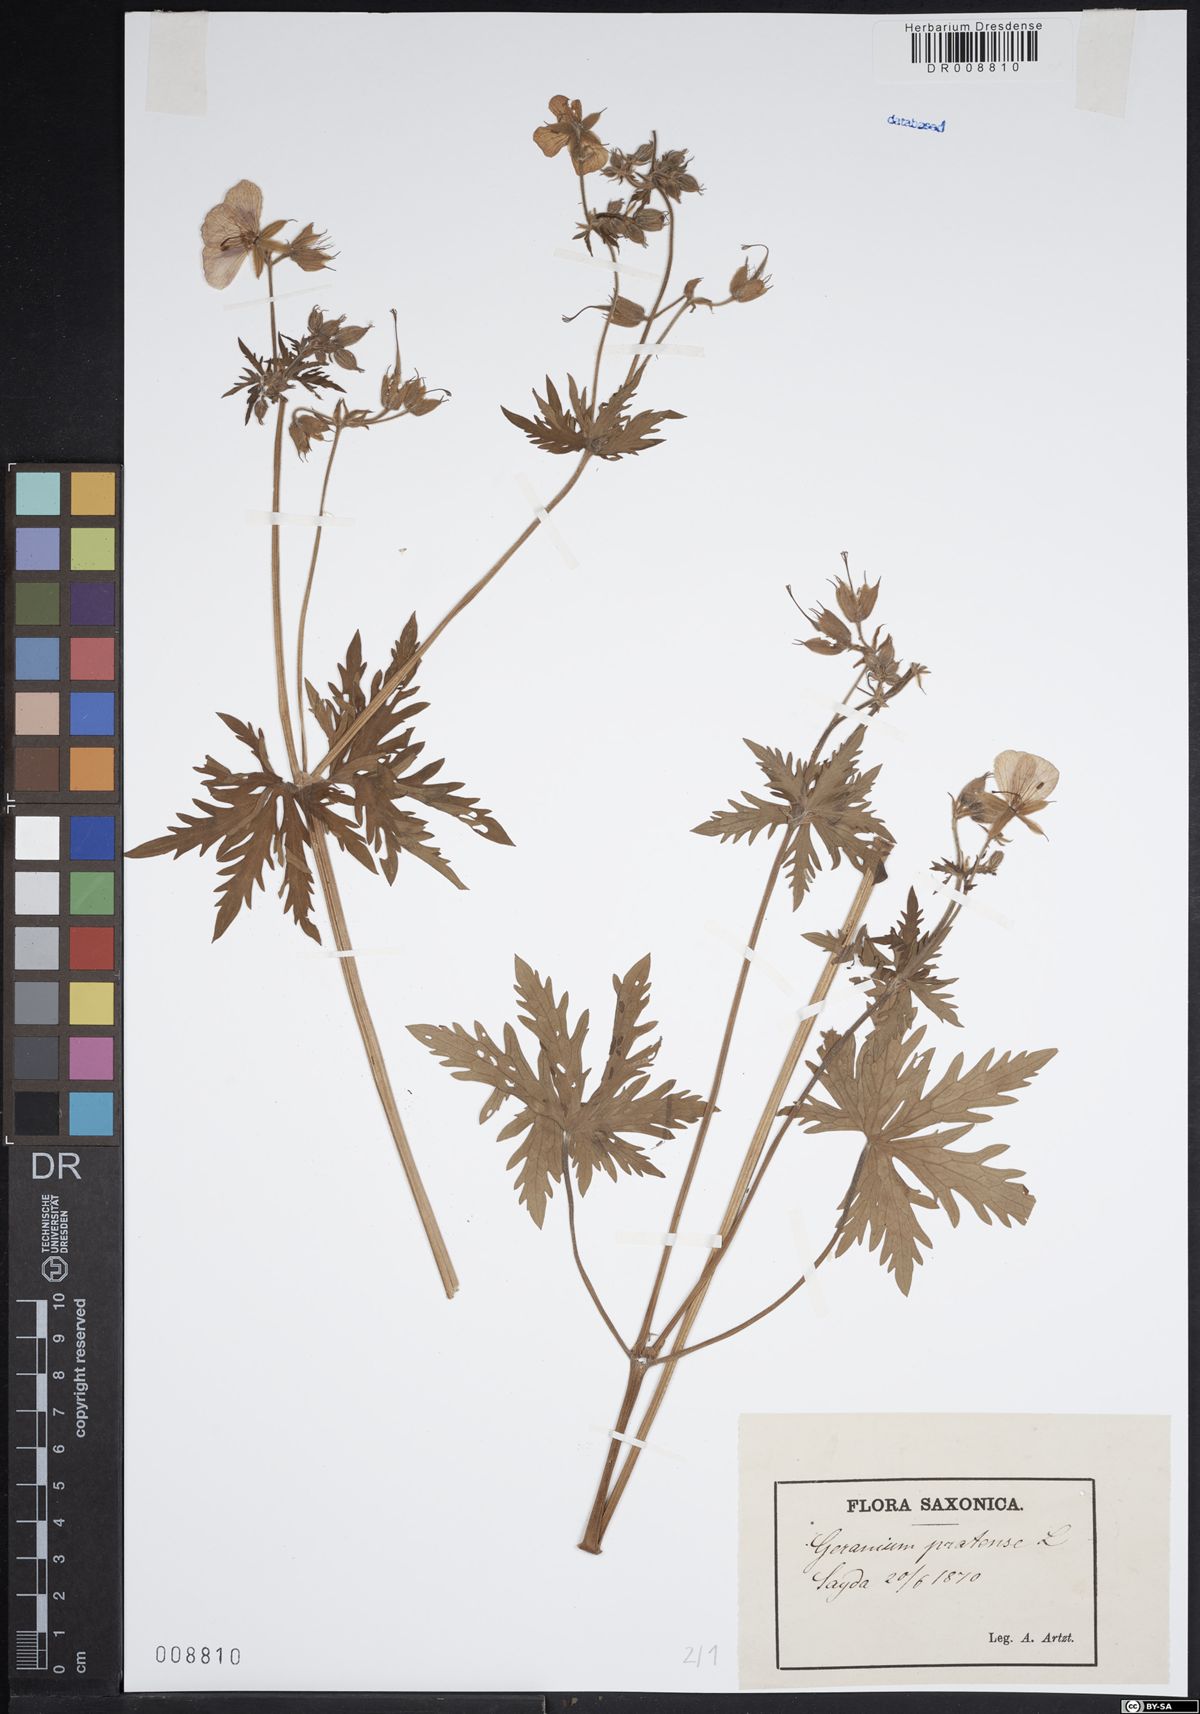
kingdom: Plantae
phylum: Tracheophyta
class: Magnoliopsida
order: Geraniales
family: Geraniaceae
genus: Geranium
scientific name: Geranium pratense
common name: Meadow crane's-bill
